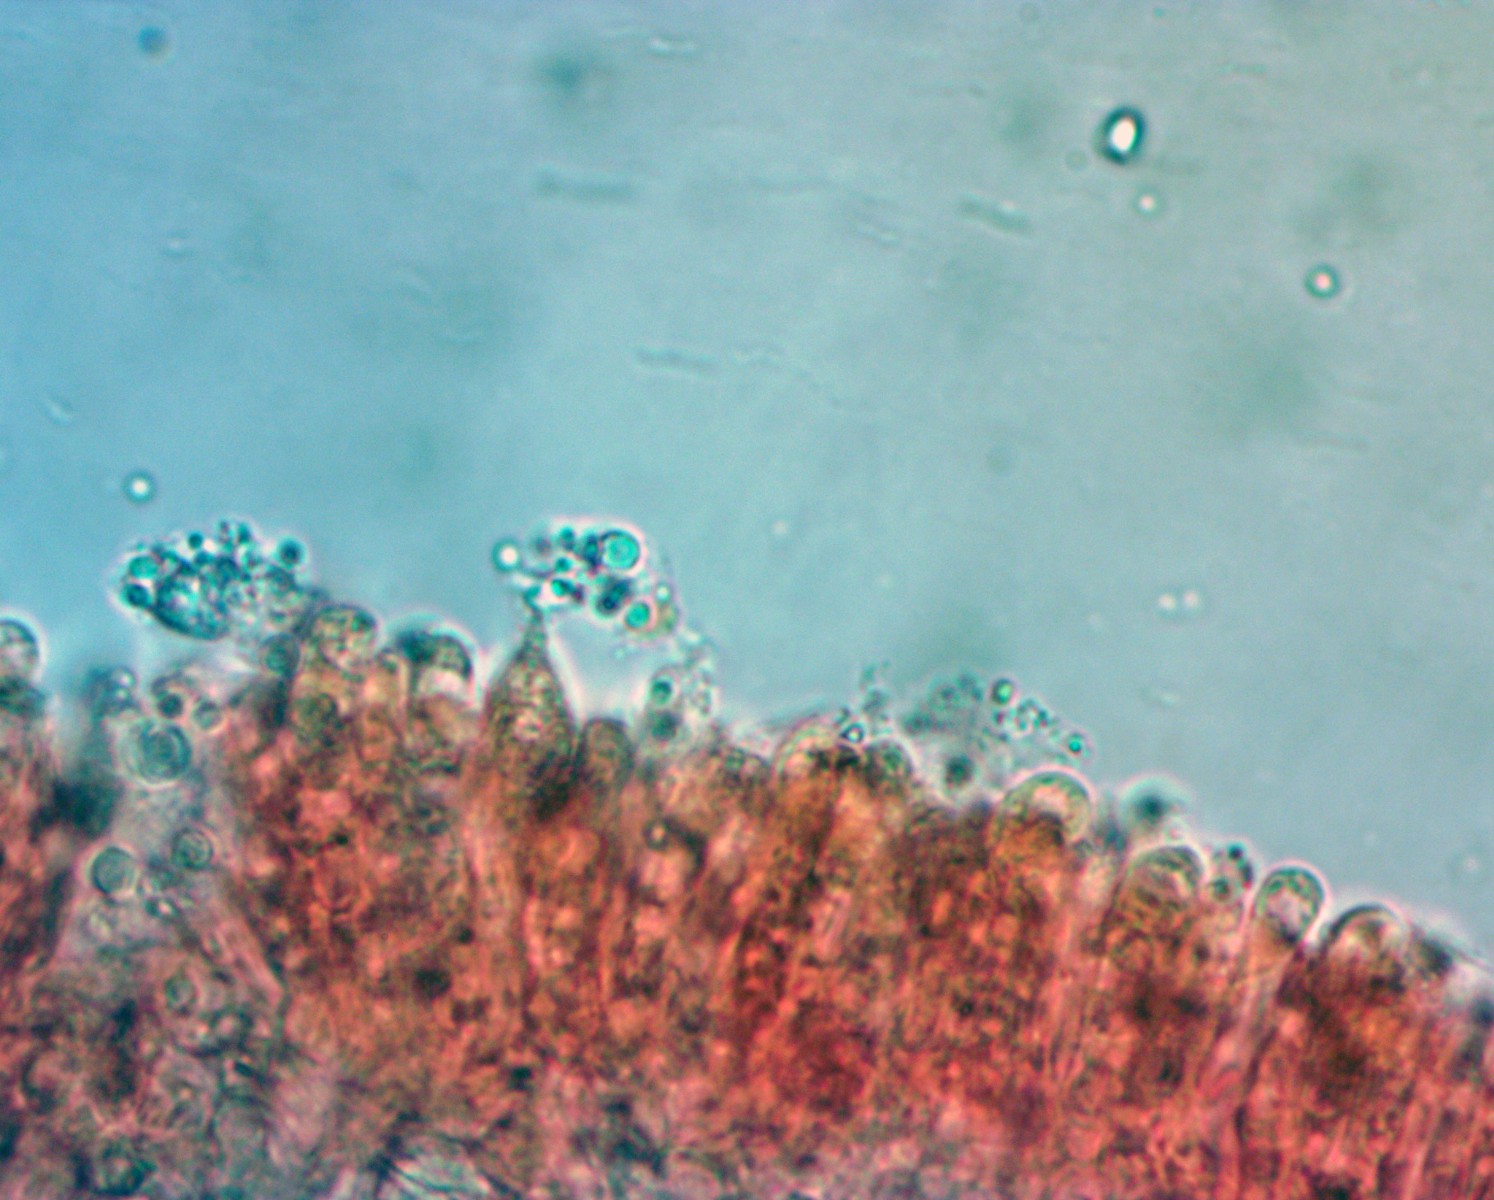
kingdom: Fungi
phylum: Basidiomycota
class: Agaricomycetes
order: Agaricales
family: Mycenaceae
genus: Hemimycena
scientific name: Hemimycena mairei
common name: voks-huesvamp
